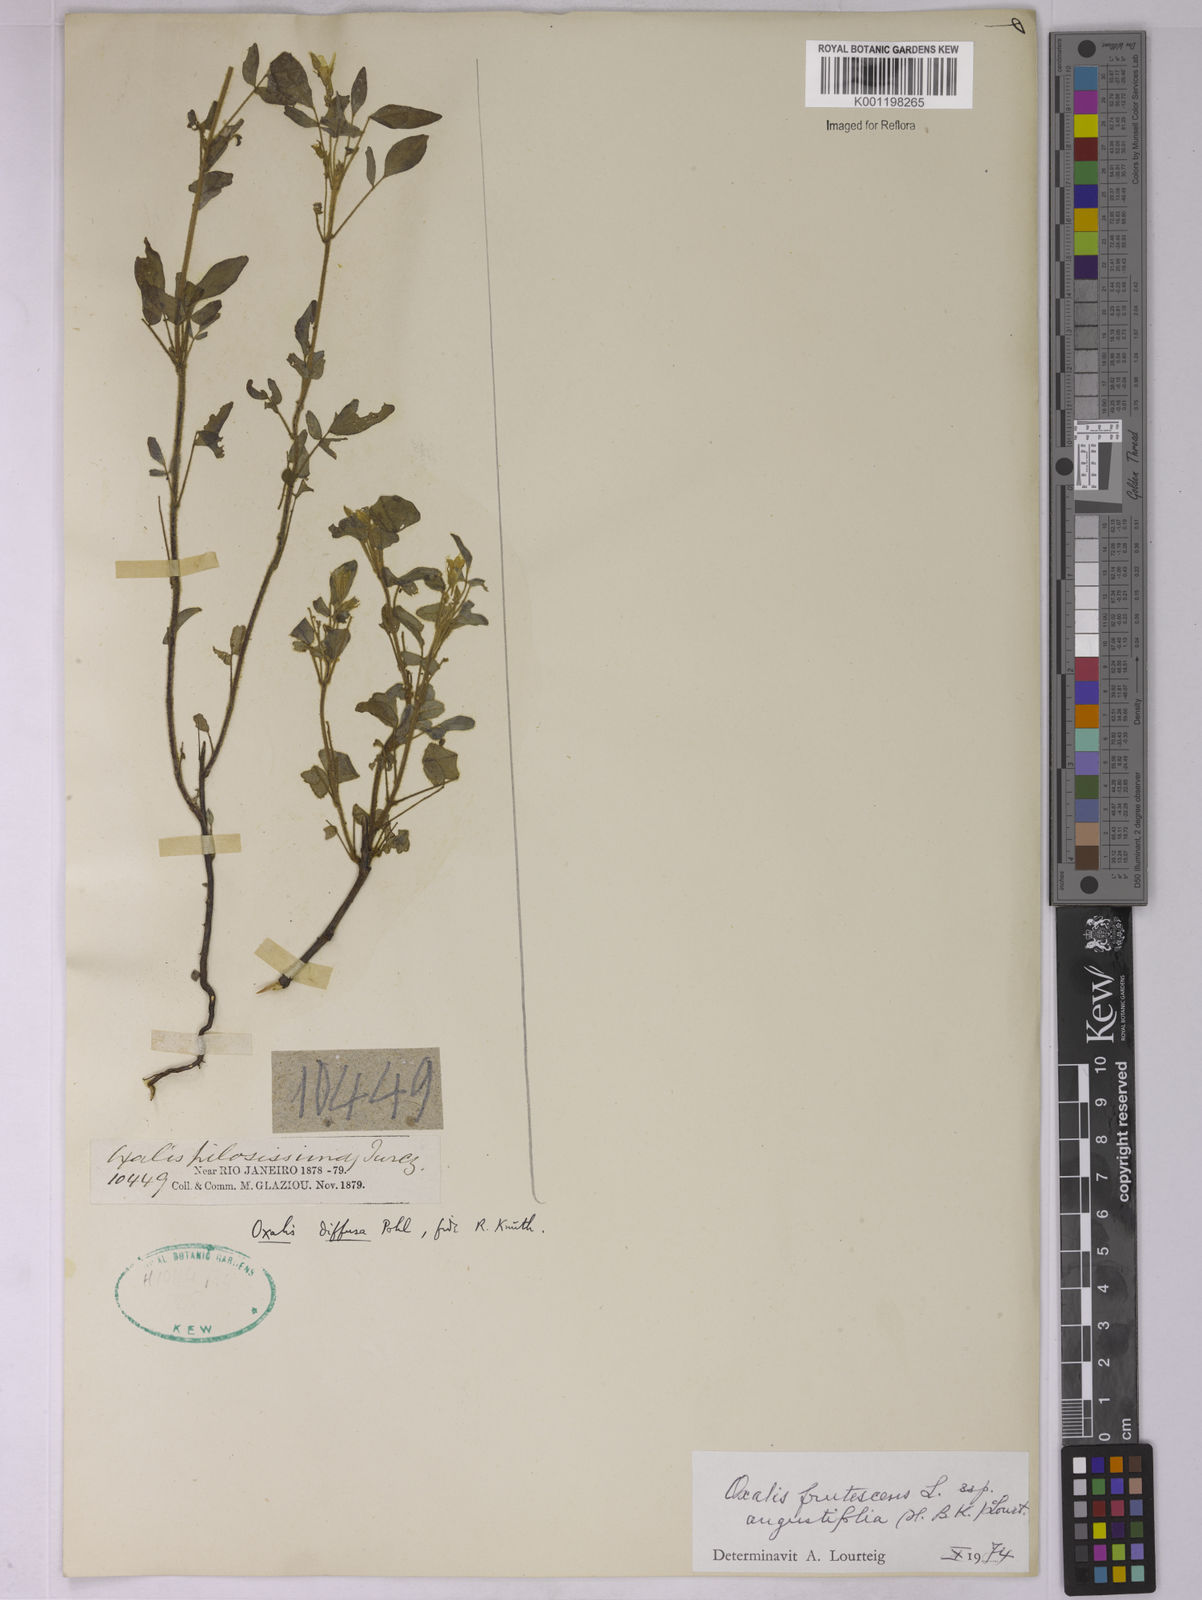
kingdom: Plantae
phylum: Tracheophyta
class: Magnoliopsida
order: Oxalidales
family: Oxalidaceae
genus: Oxalis
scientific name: Oxalis frutescens
